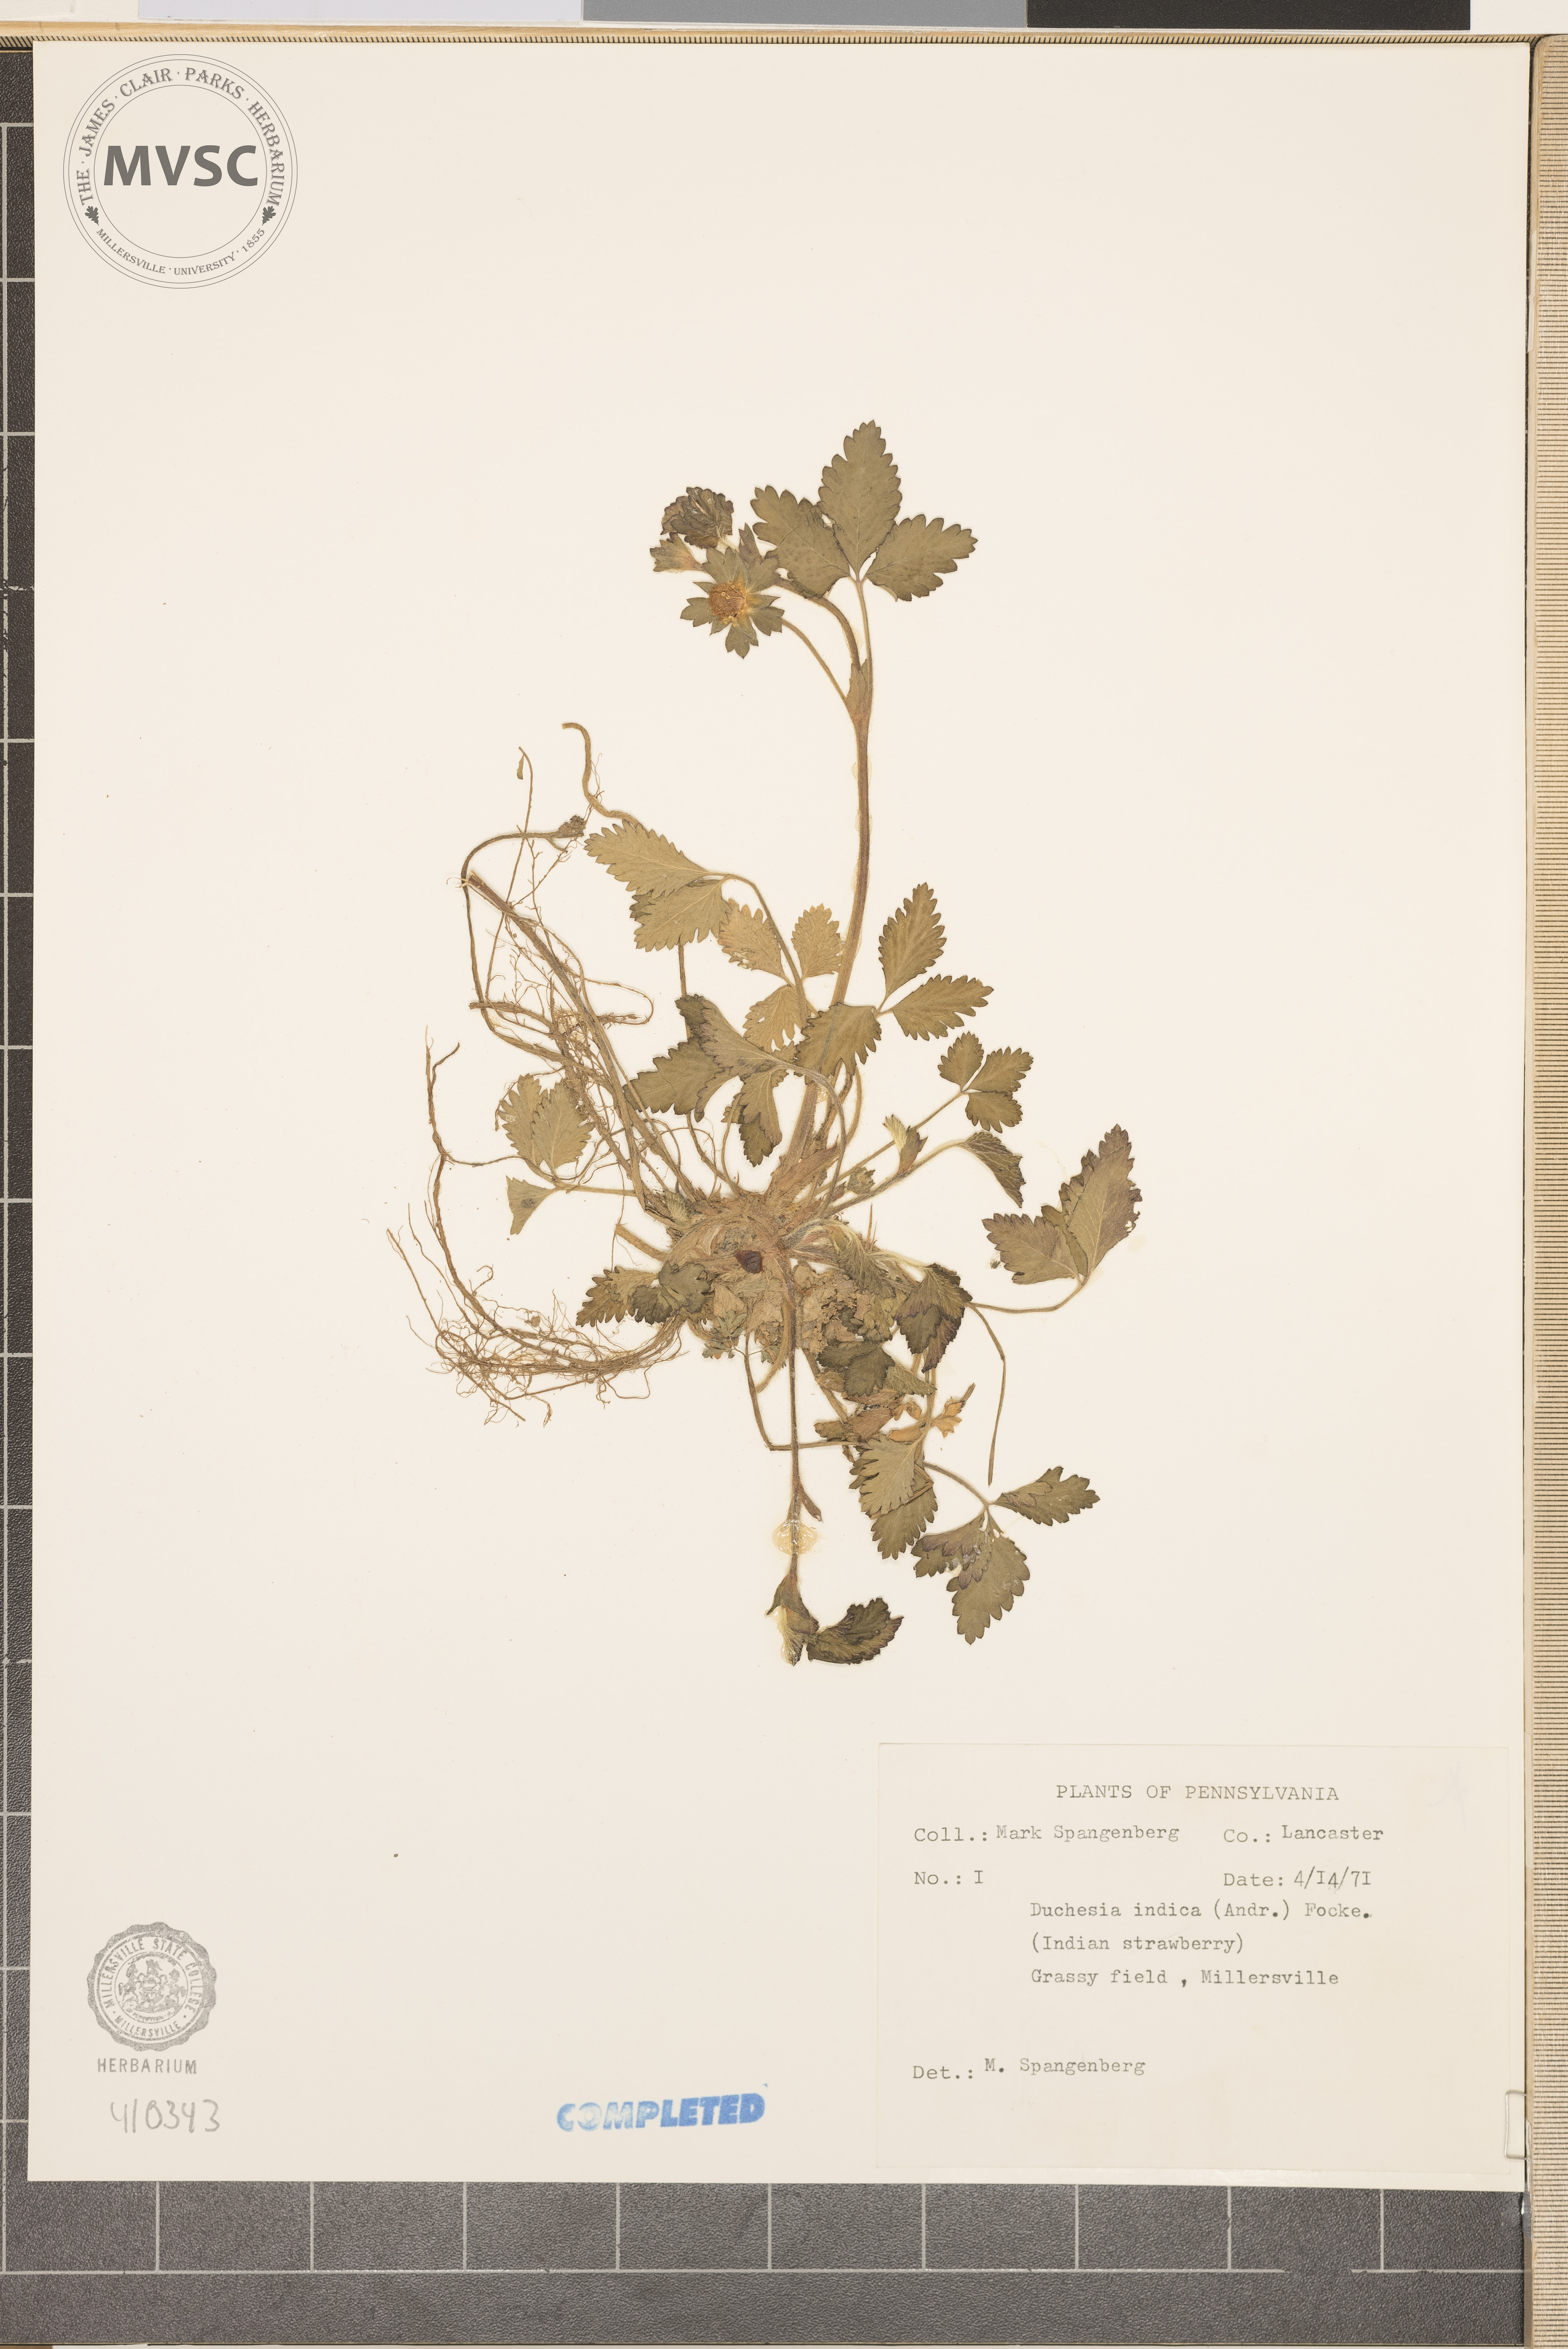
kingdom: Plantae
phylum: Tracheophyta
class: Magnoliopsida
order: Rosales
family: Rosaceae
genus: Potentilla
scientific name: Potentilla indica
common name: Yellow-flowered strawberry
